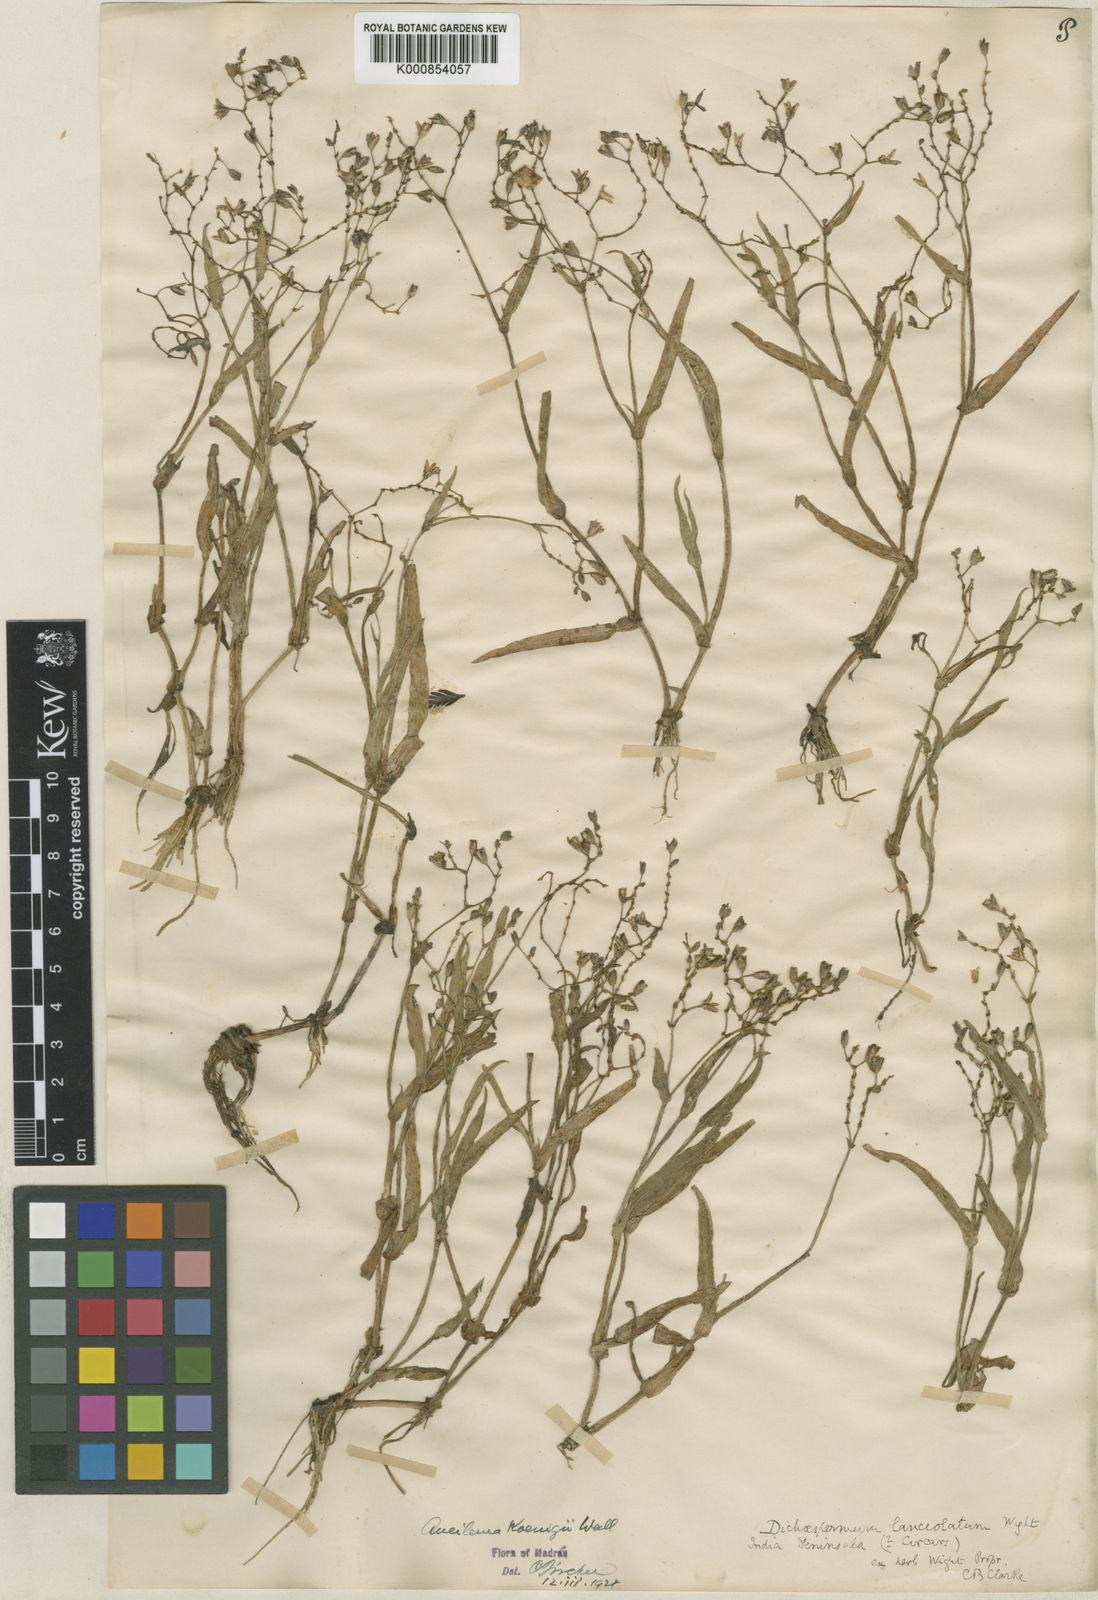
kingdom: Plantae
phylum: Tracheophyta
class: Liliopsida
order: Commelinales
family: Commelinaceae
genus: Murdannia
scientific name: Murdannia
